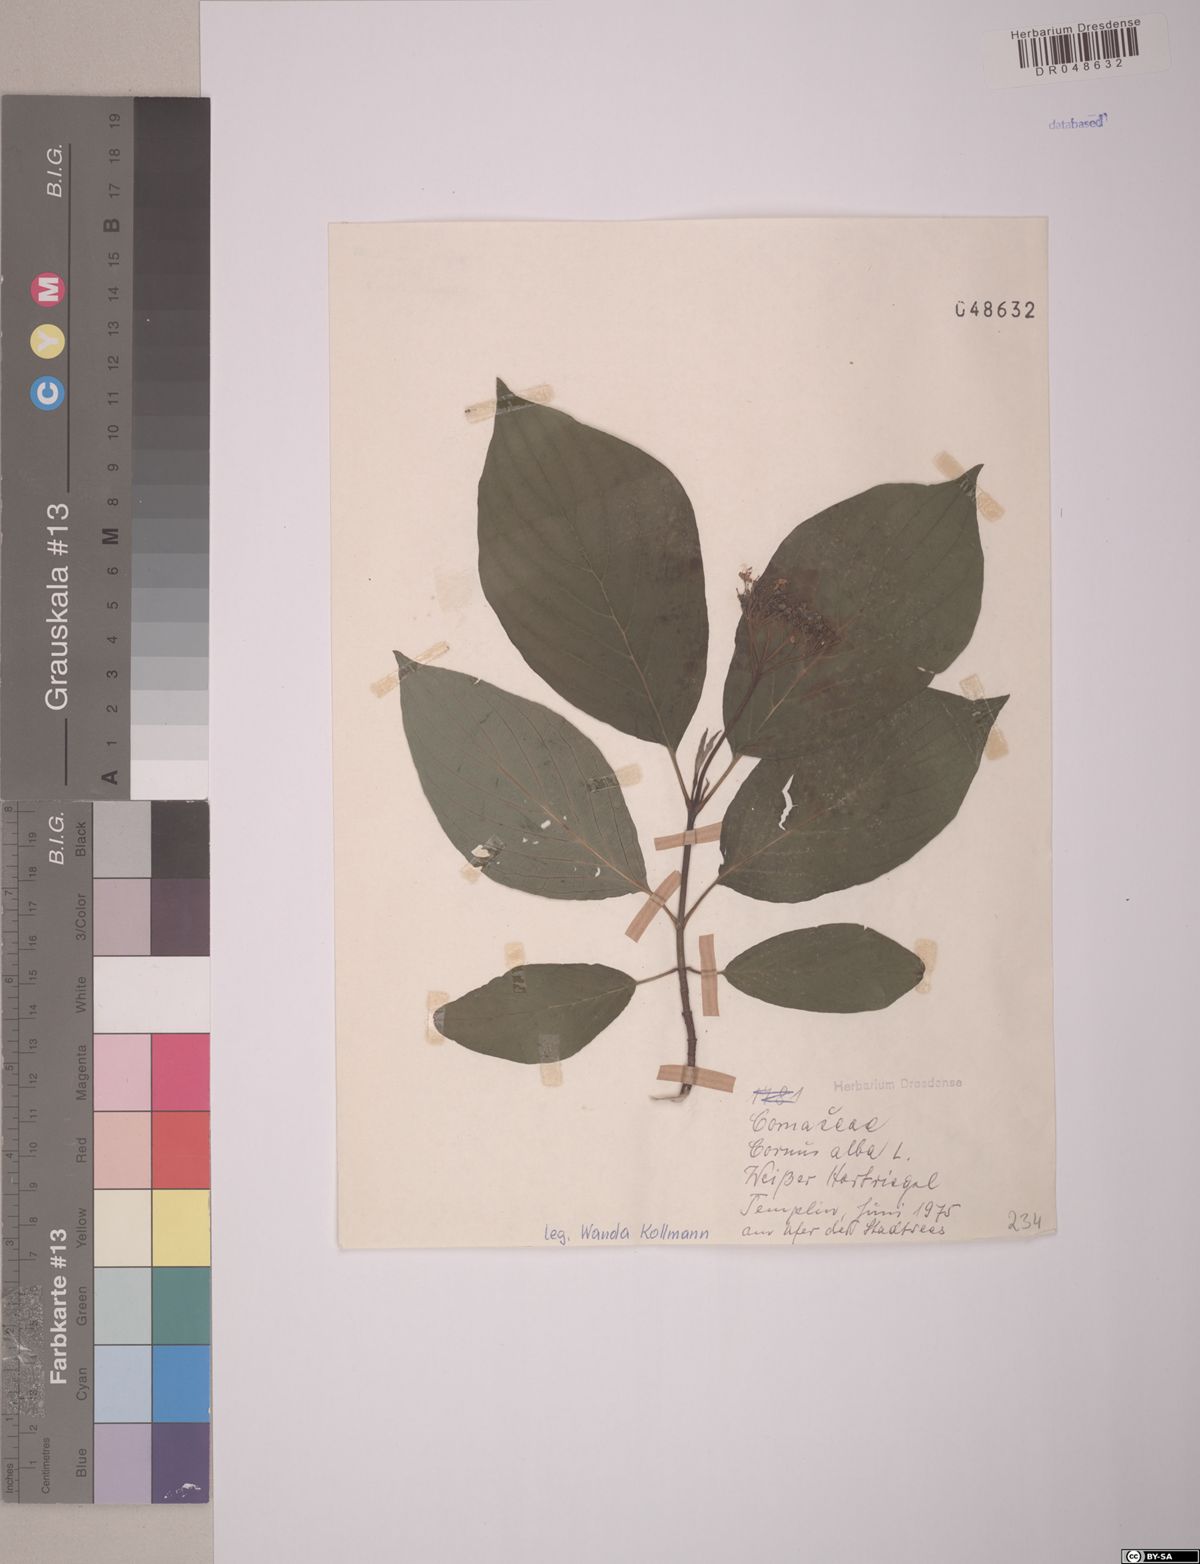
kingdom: Plantae
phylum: Tracheophyta
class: Magnoliopsida
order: Cornales
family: Cornaceae
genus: Cornus
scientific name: Cornus alba
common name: White dogwood
